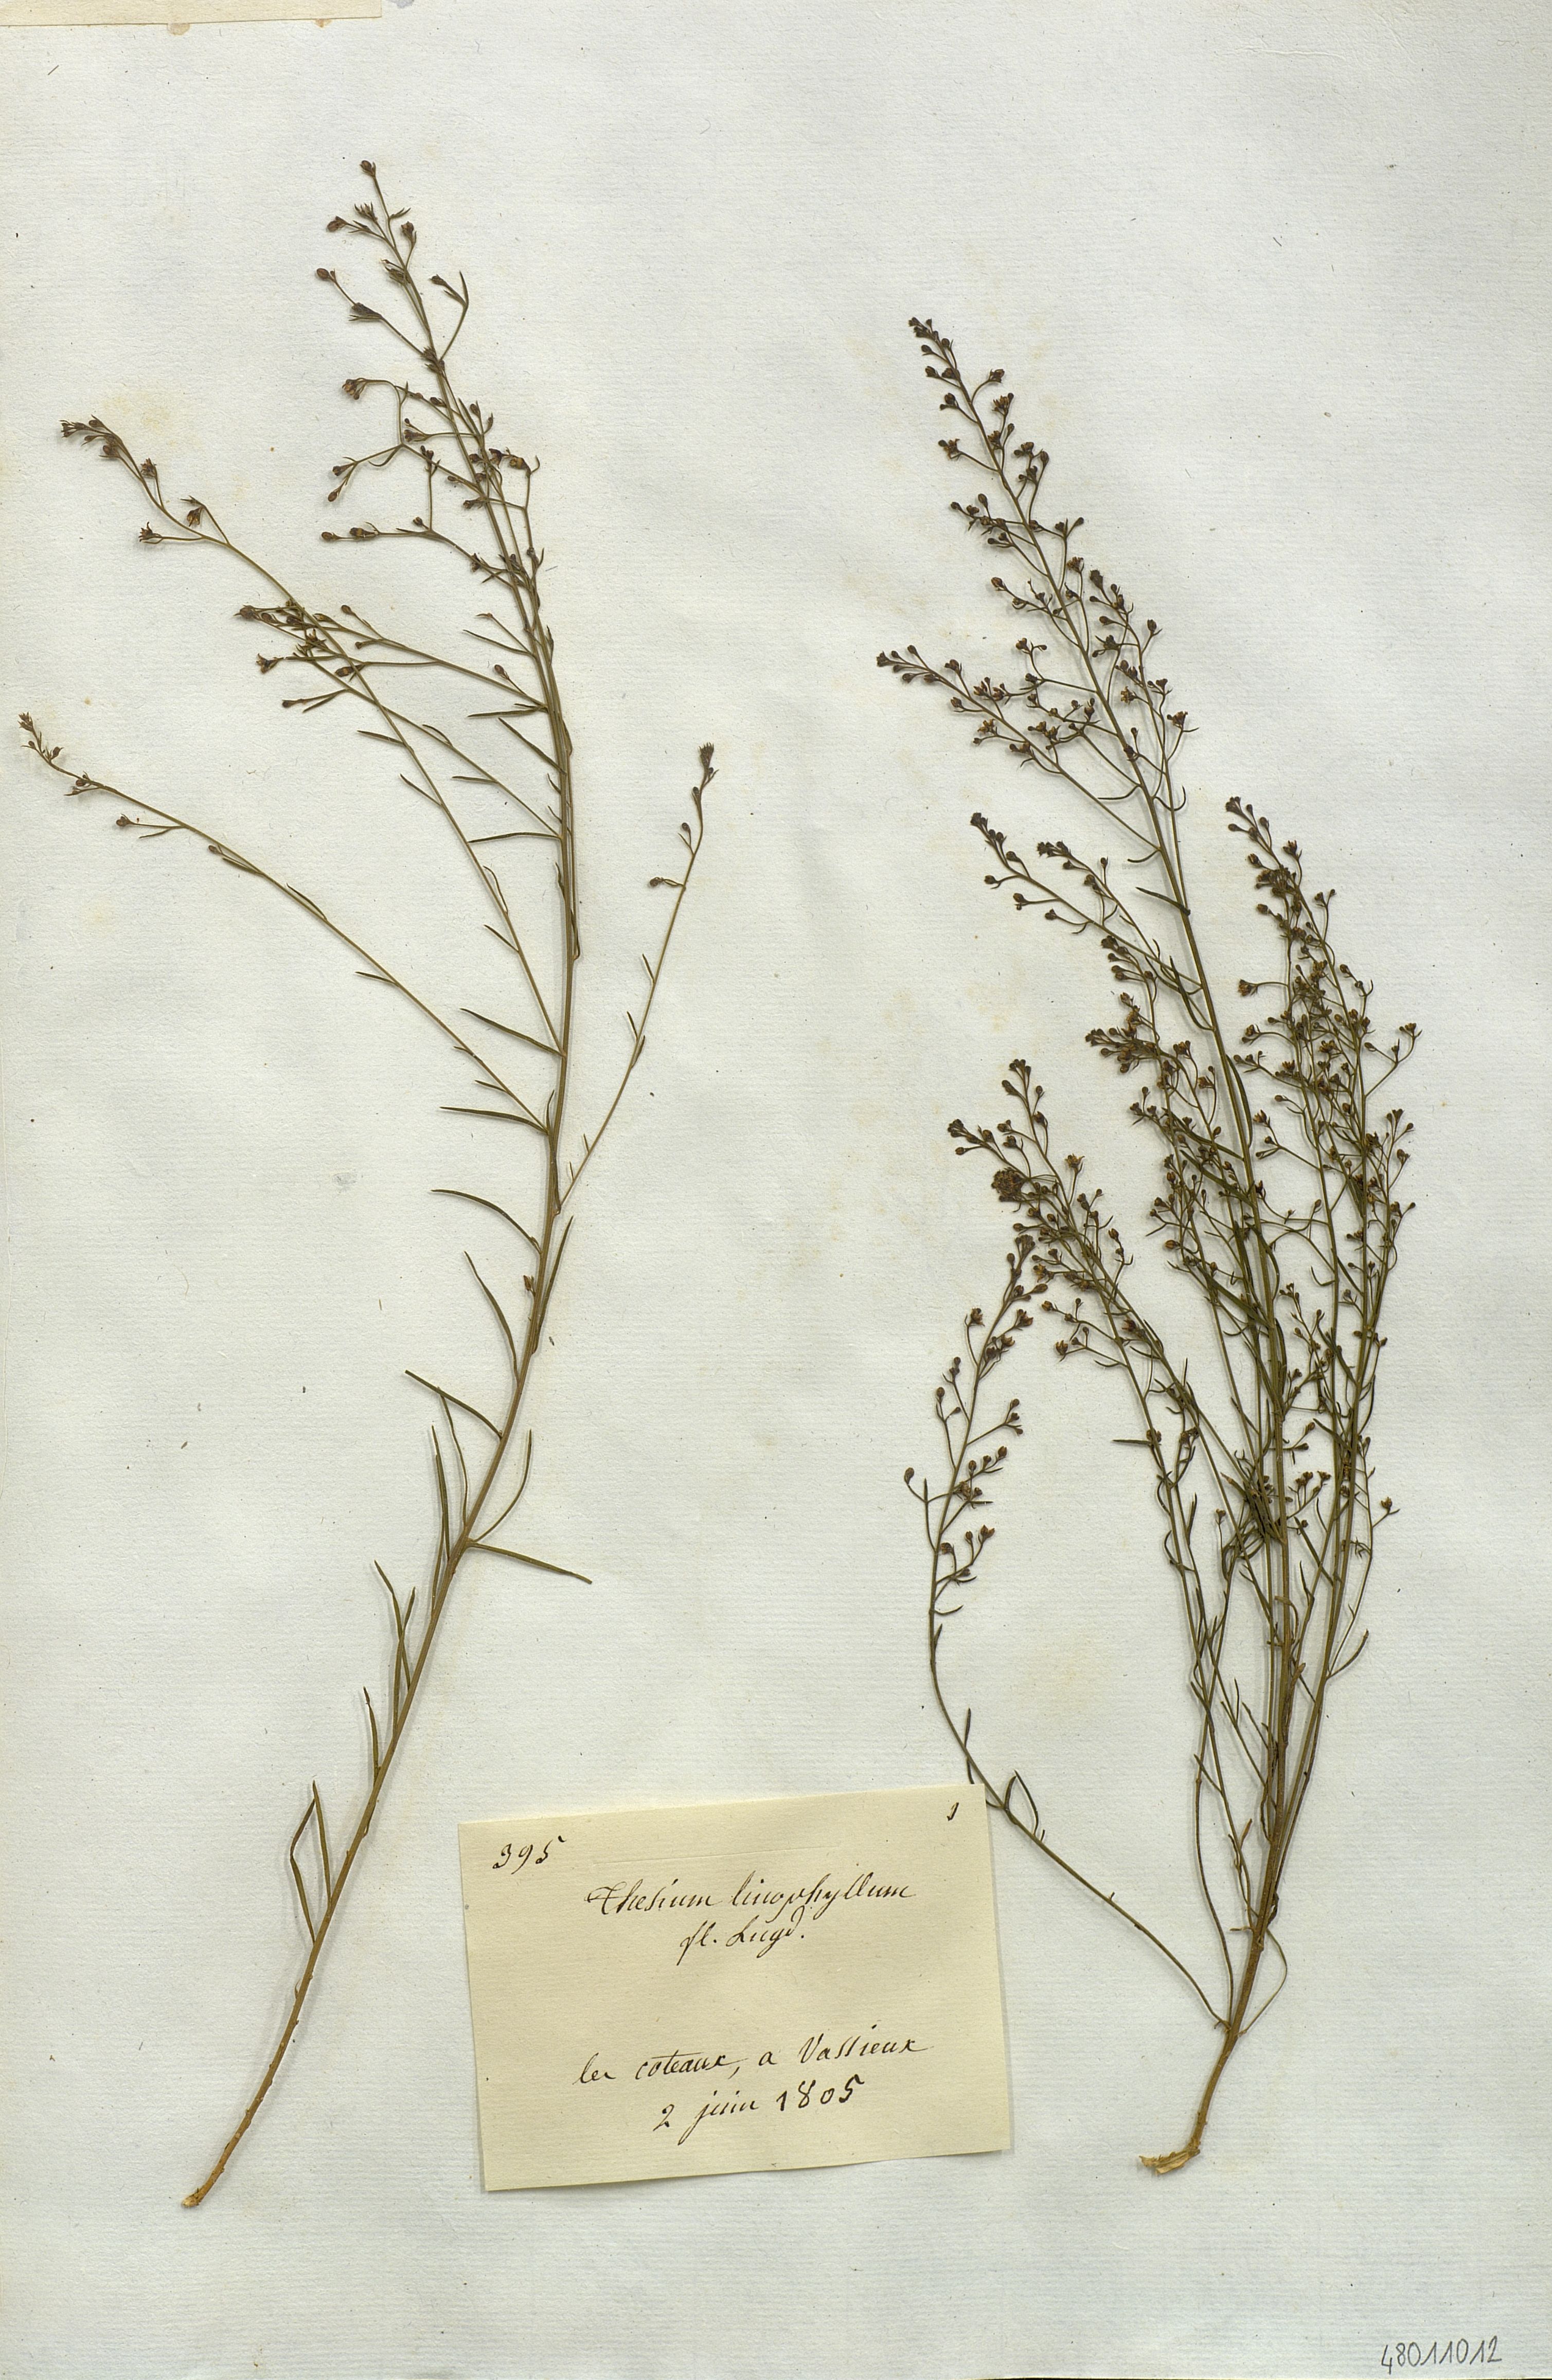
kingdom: Plantae
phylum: Tracheophyta
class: Magnoliopsida
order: Santalales
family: Thesiaceae
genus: Thesium
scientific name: Thesium linophyllum
